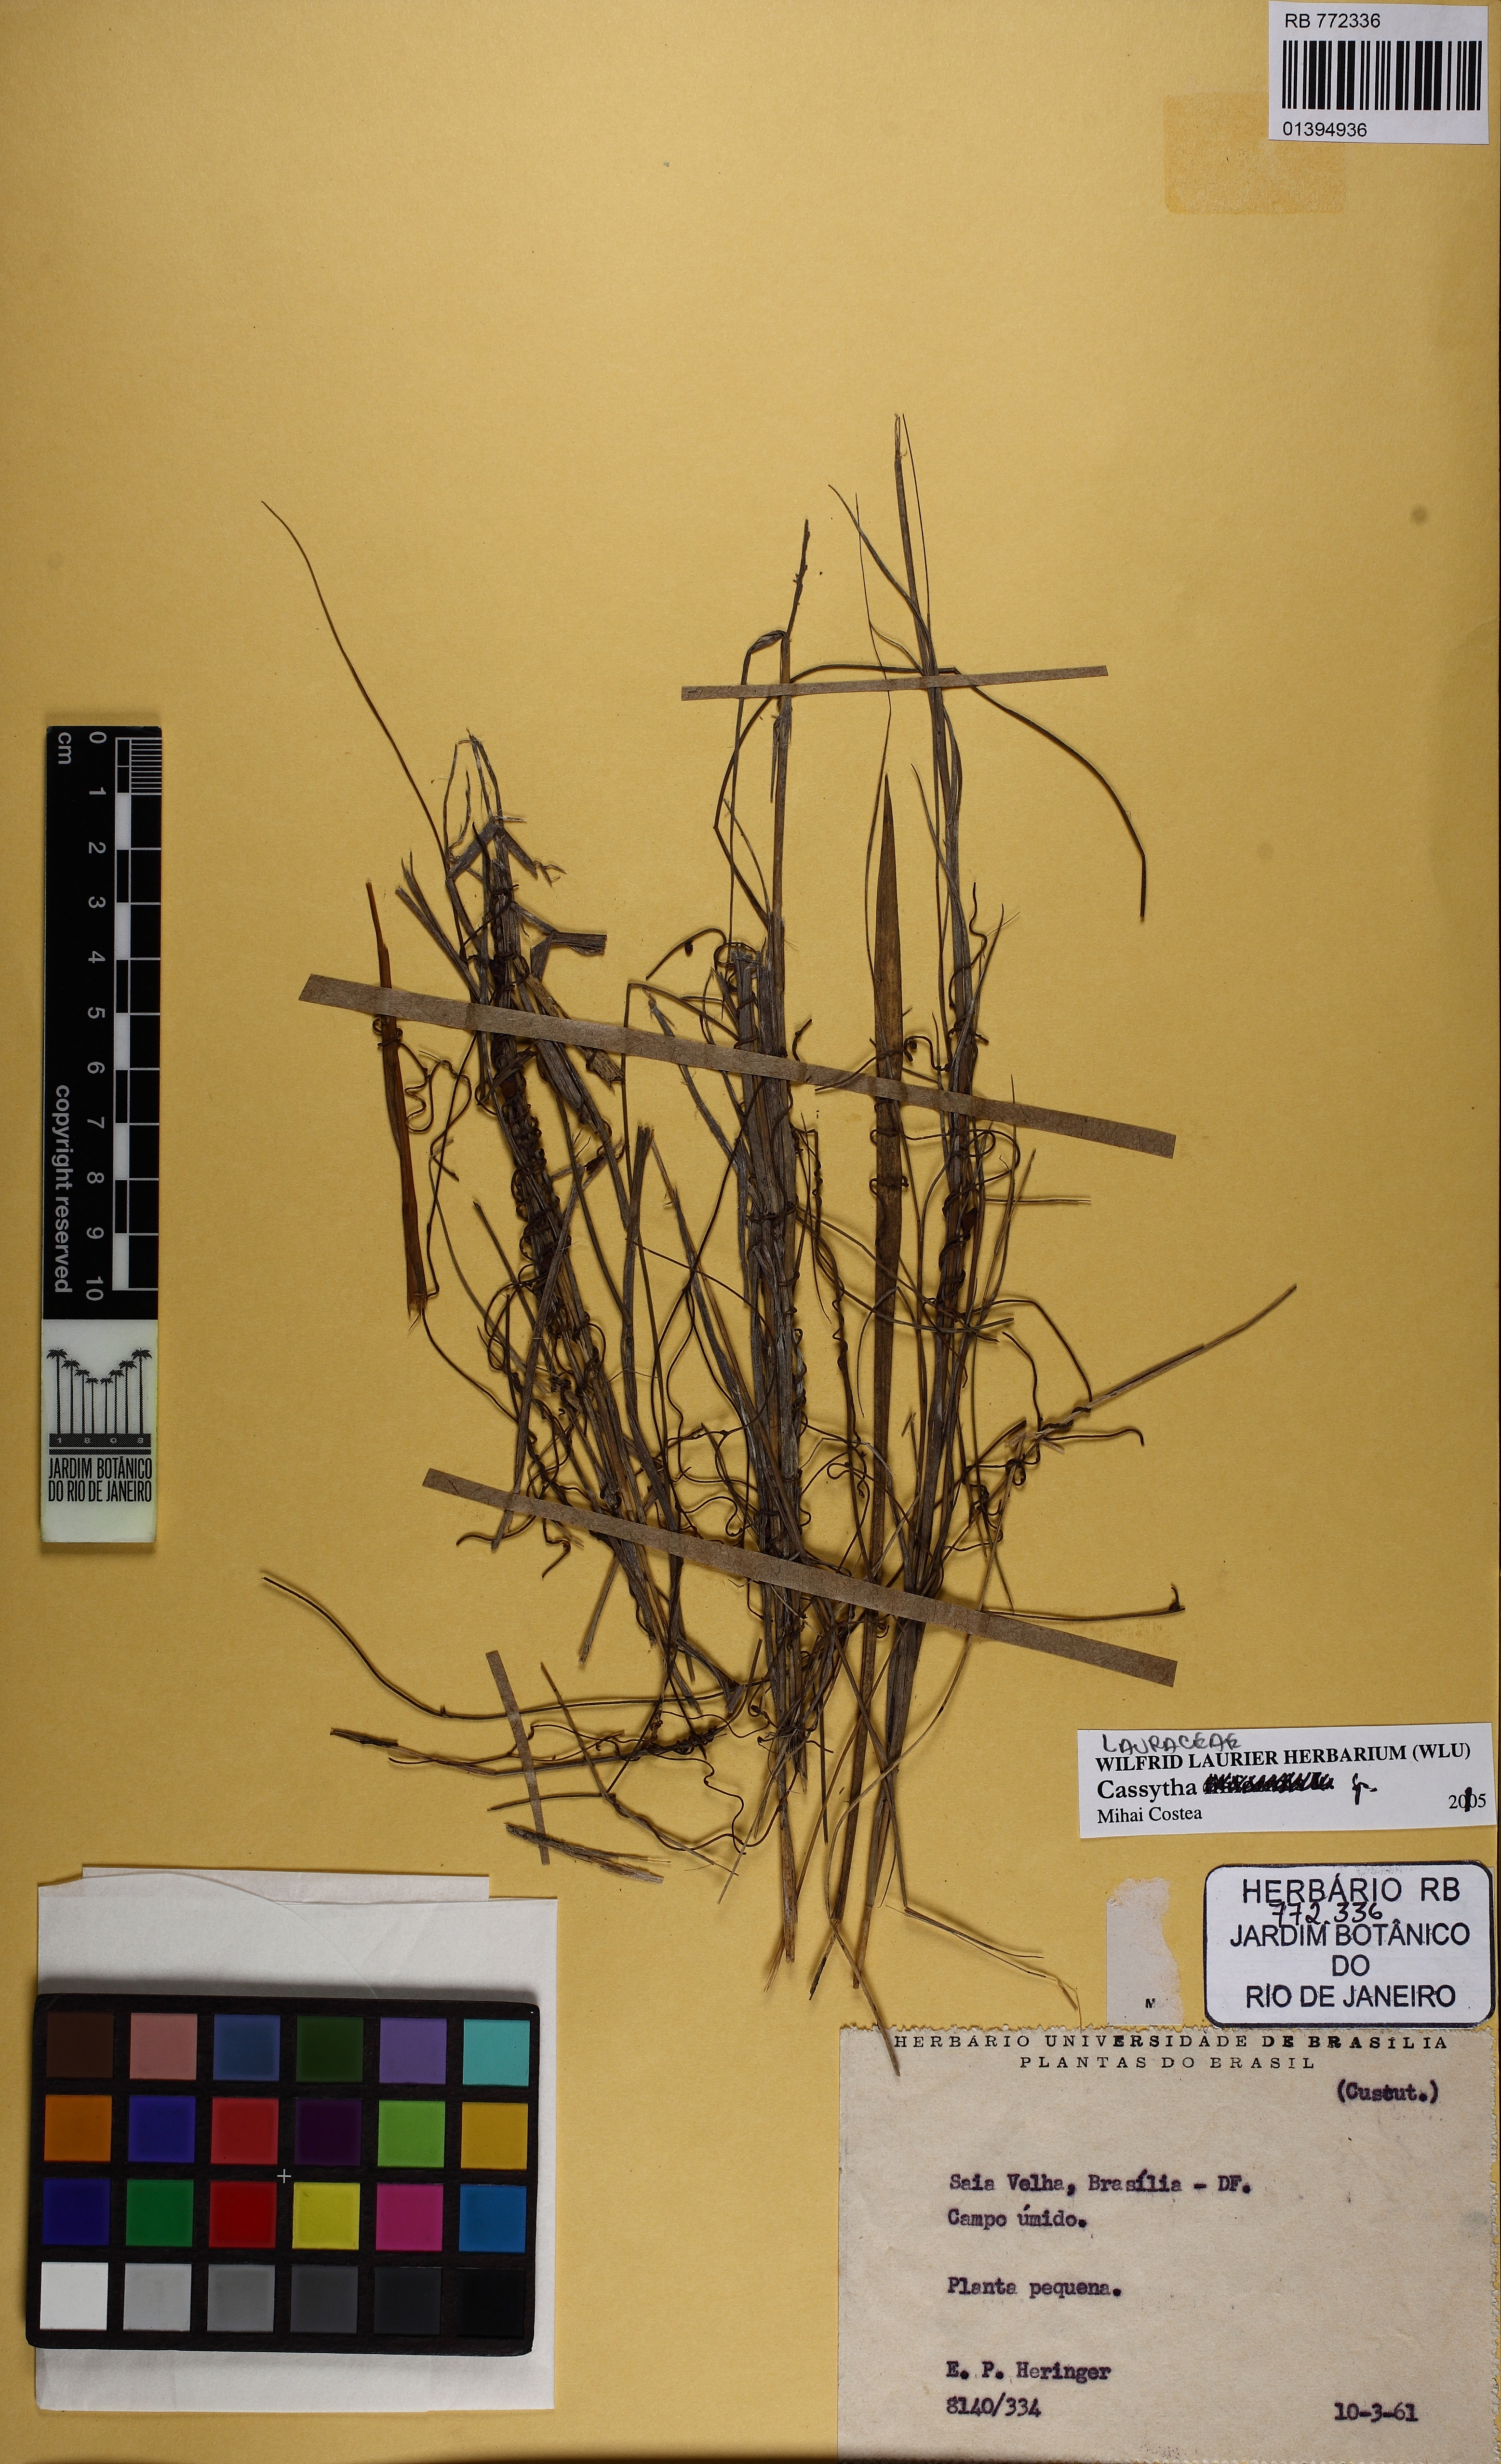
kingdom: Plantae
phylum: Tracheophyta
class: Magnoliopsida
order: Laurales
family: Lauraceae
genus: Cassytha
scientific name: Cassytha
